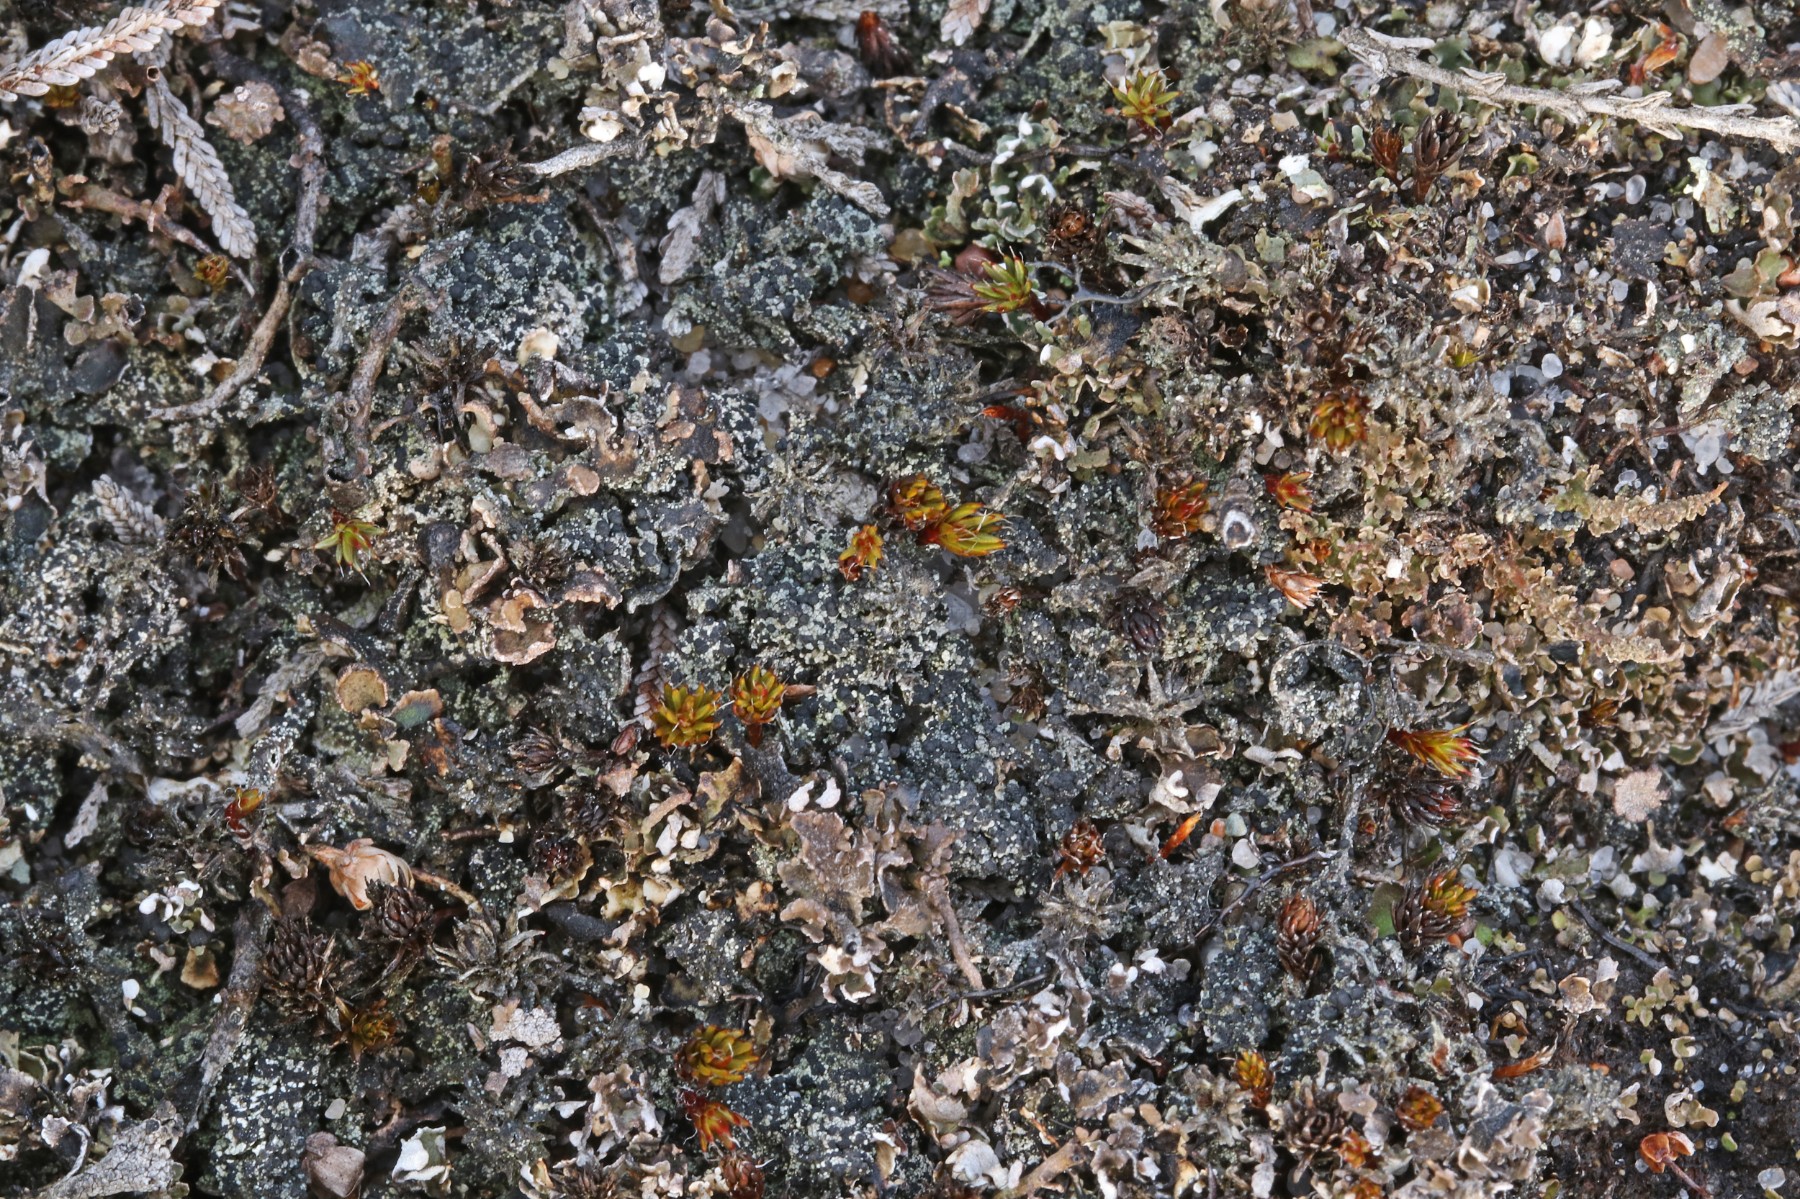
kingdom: Fungi
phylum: Ascomycota
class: Lecanoromycetes
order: Lecanorales
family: Byssolomataceae
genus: Micarea
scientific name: Micarea lignaria
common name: tørve-knaplav
